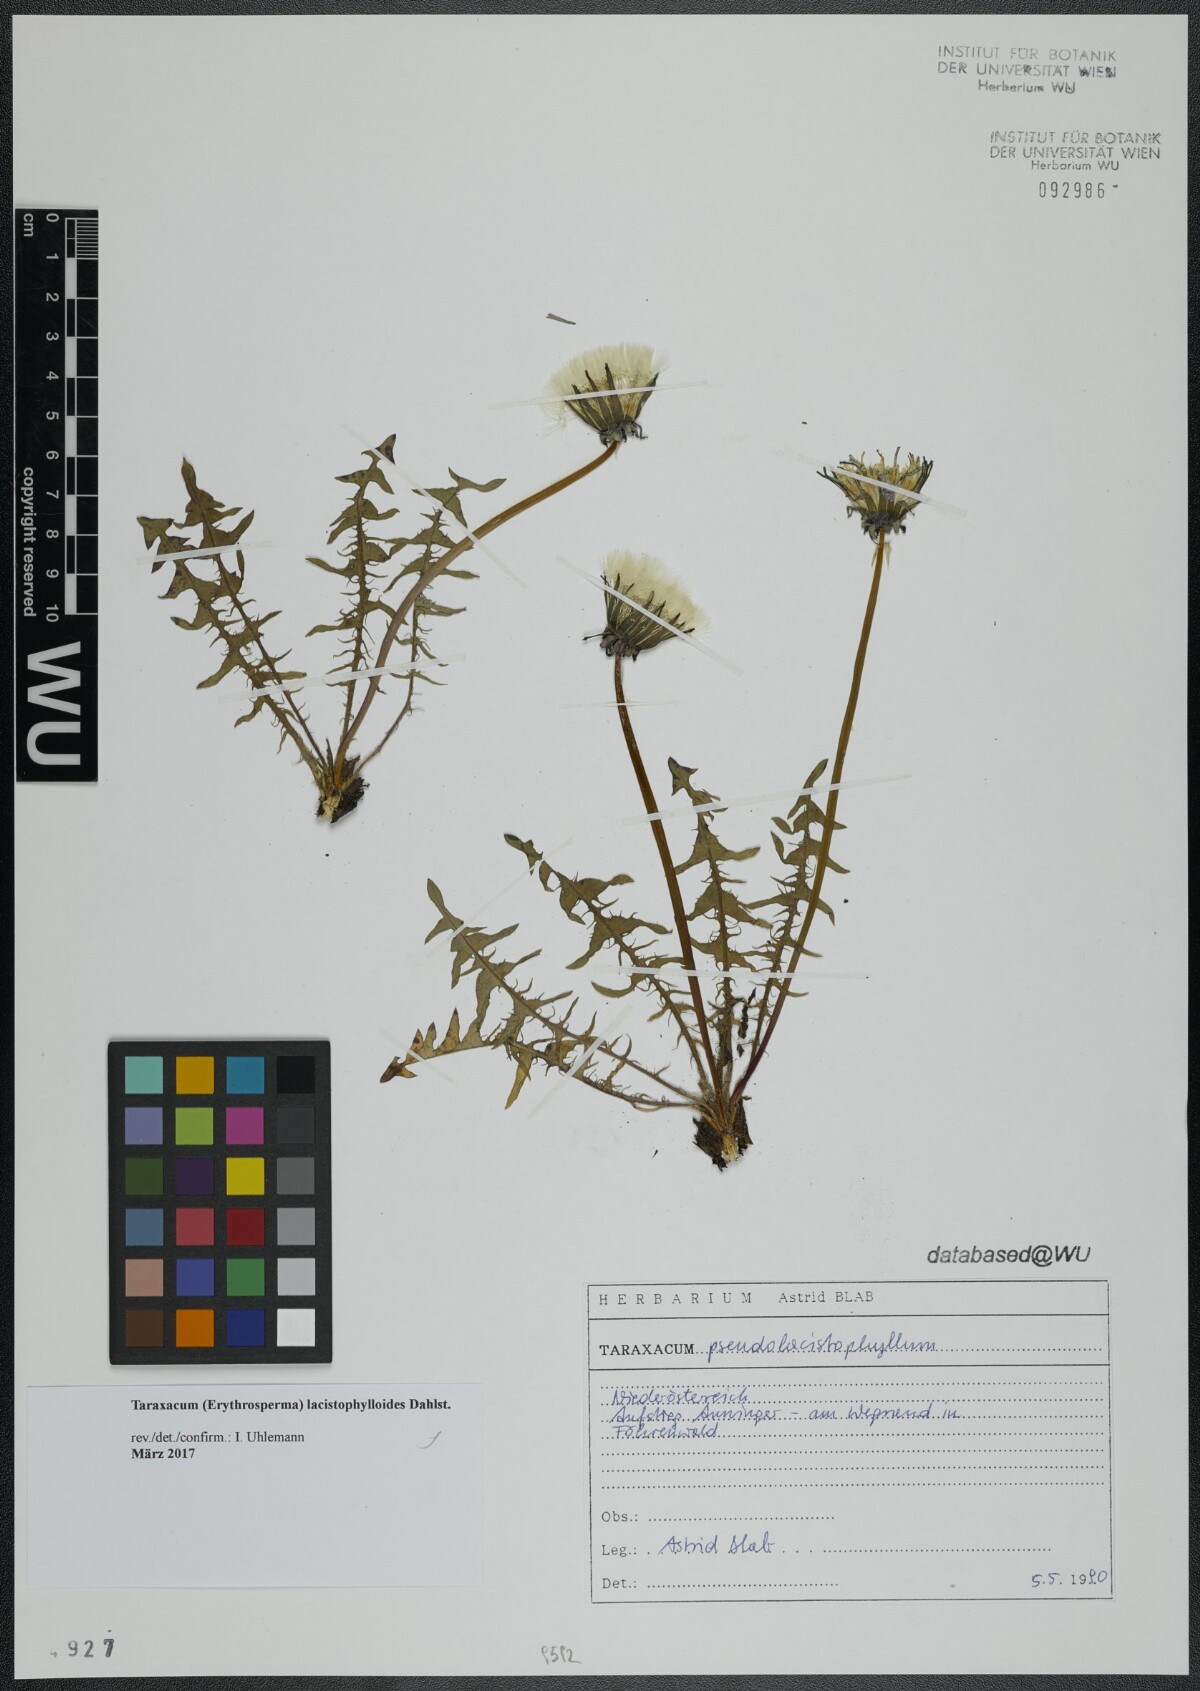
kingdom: Plantae
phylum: Tracheophyta
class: Magnoliopsida
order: Asterales
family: Asteraceae
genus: Taraxacum
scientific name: Taraxacum lacistophylloides
